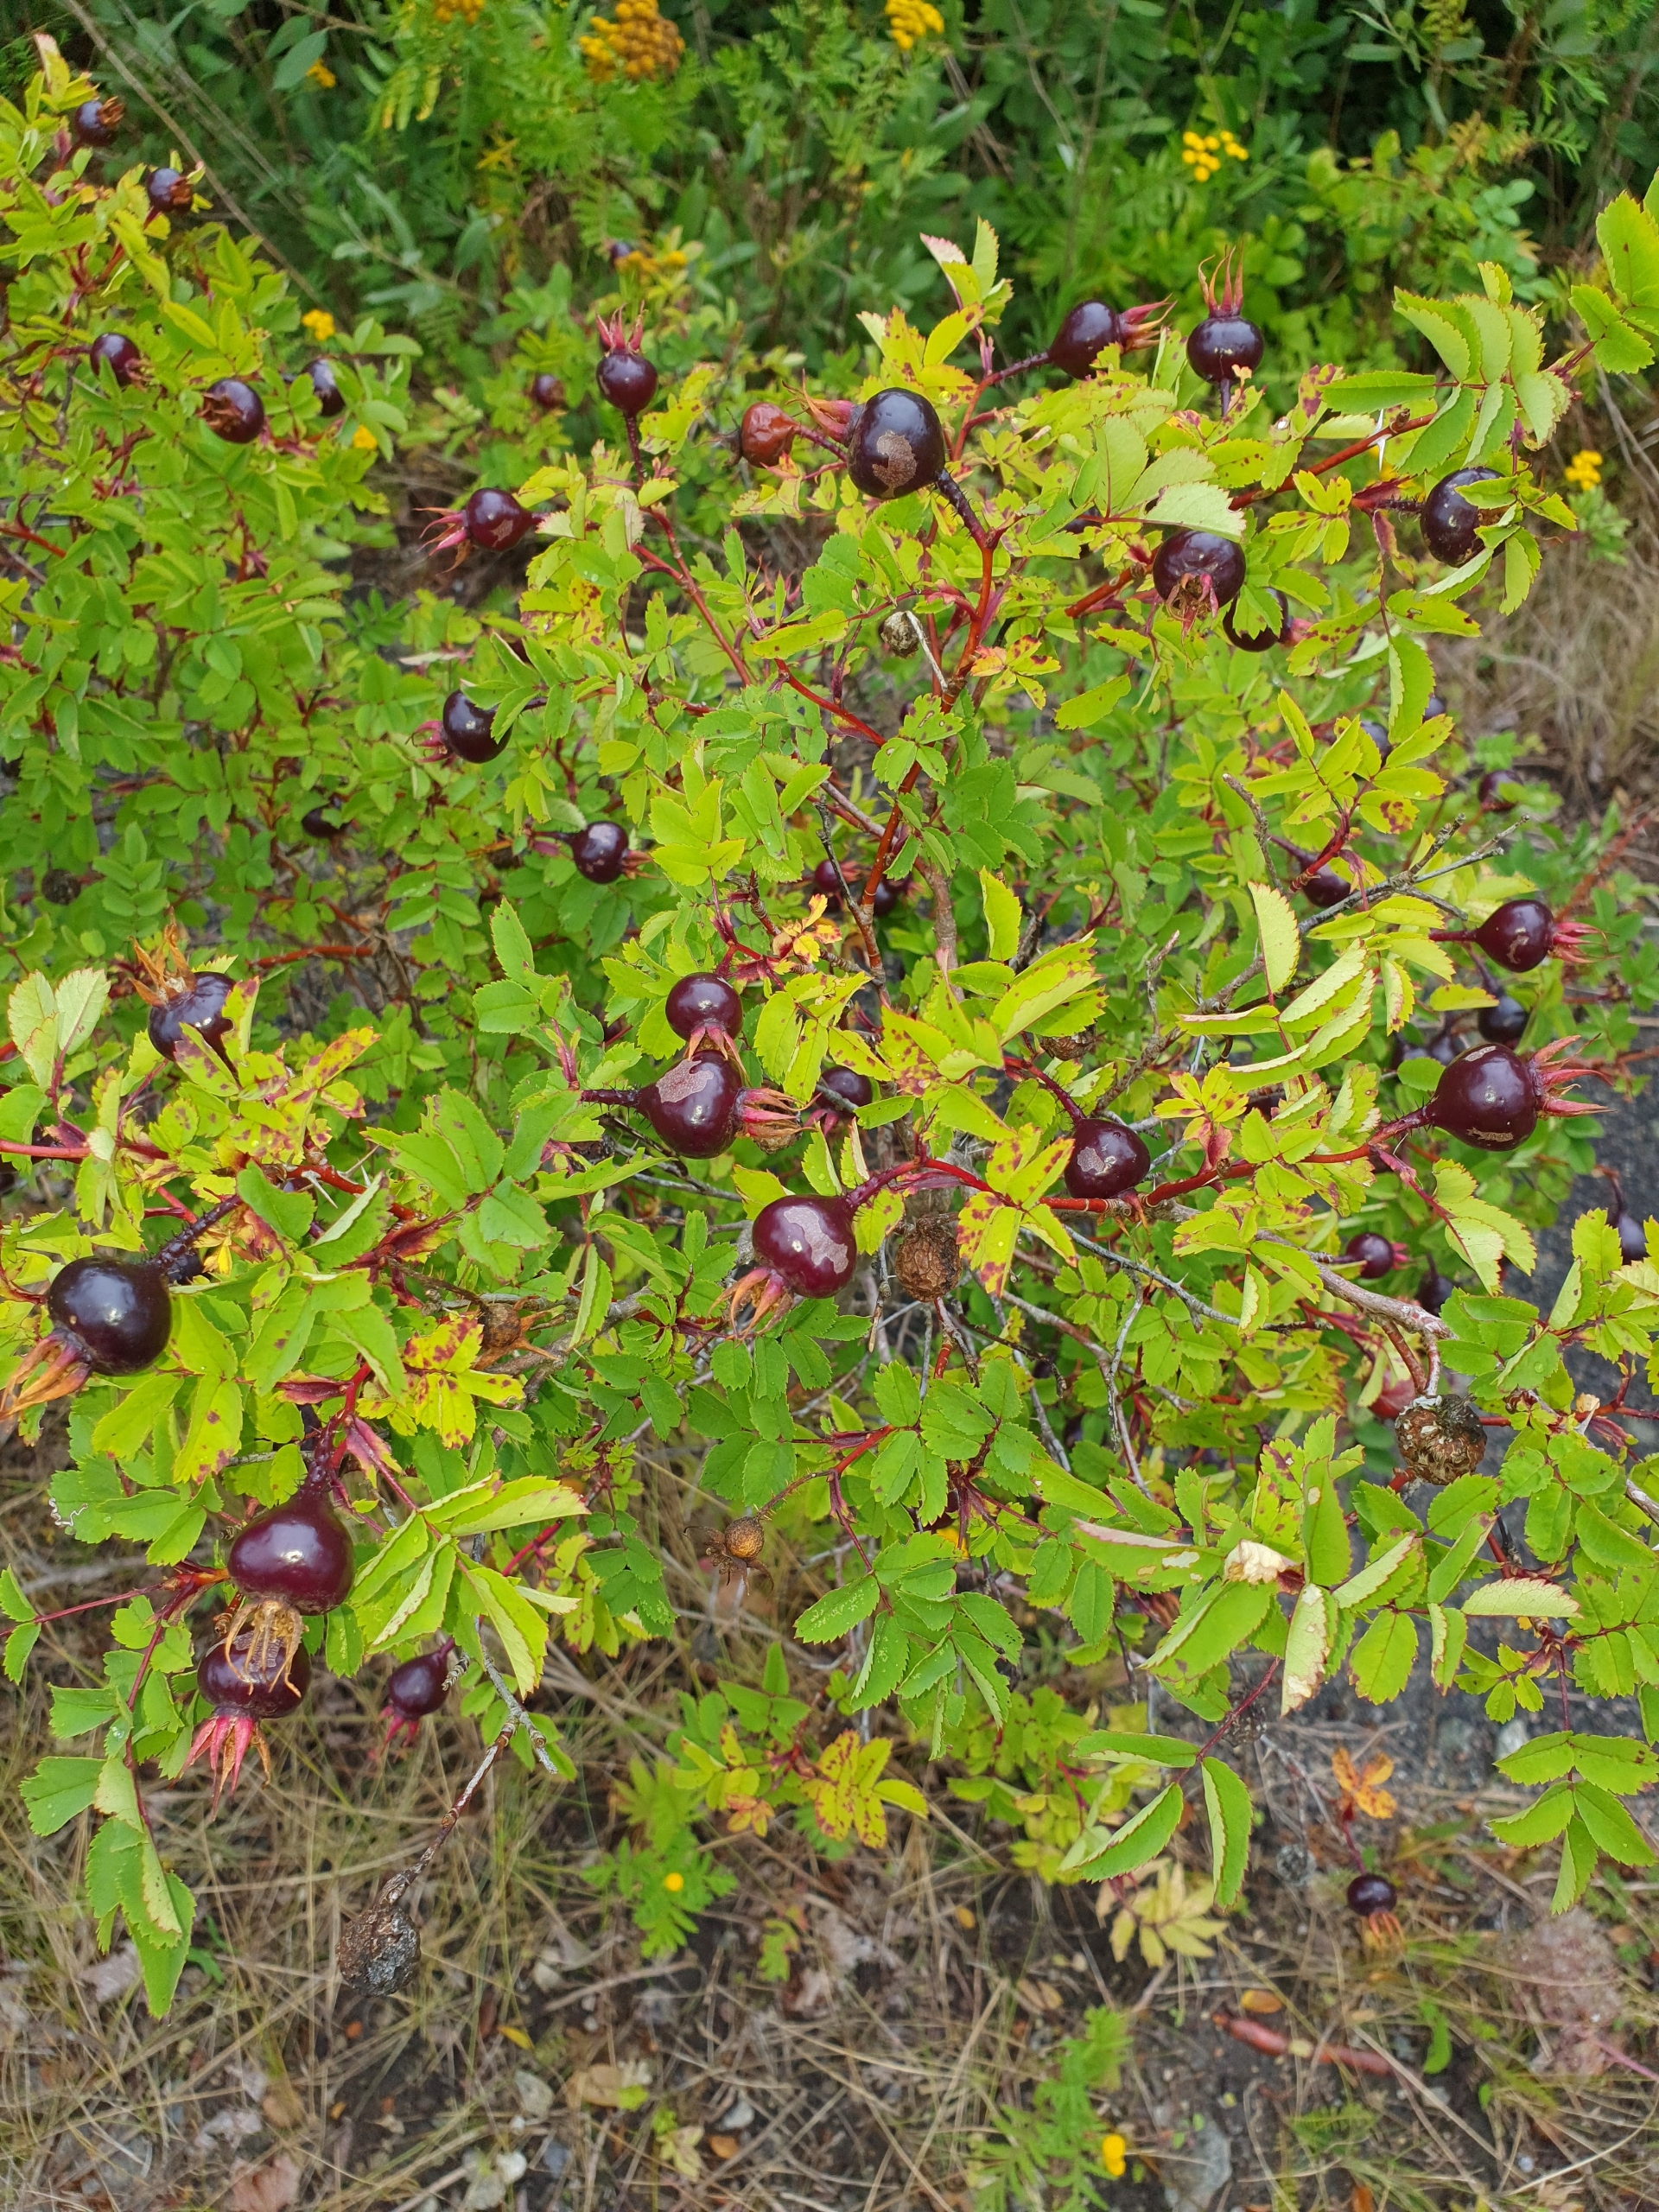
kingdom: Plantae
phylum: Tracheophyta
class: Magnoliopsida
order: Rosales
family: Rosaceae
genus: Rosa
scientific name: Rosa spinosissima
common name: Klit-rose
